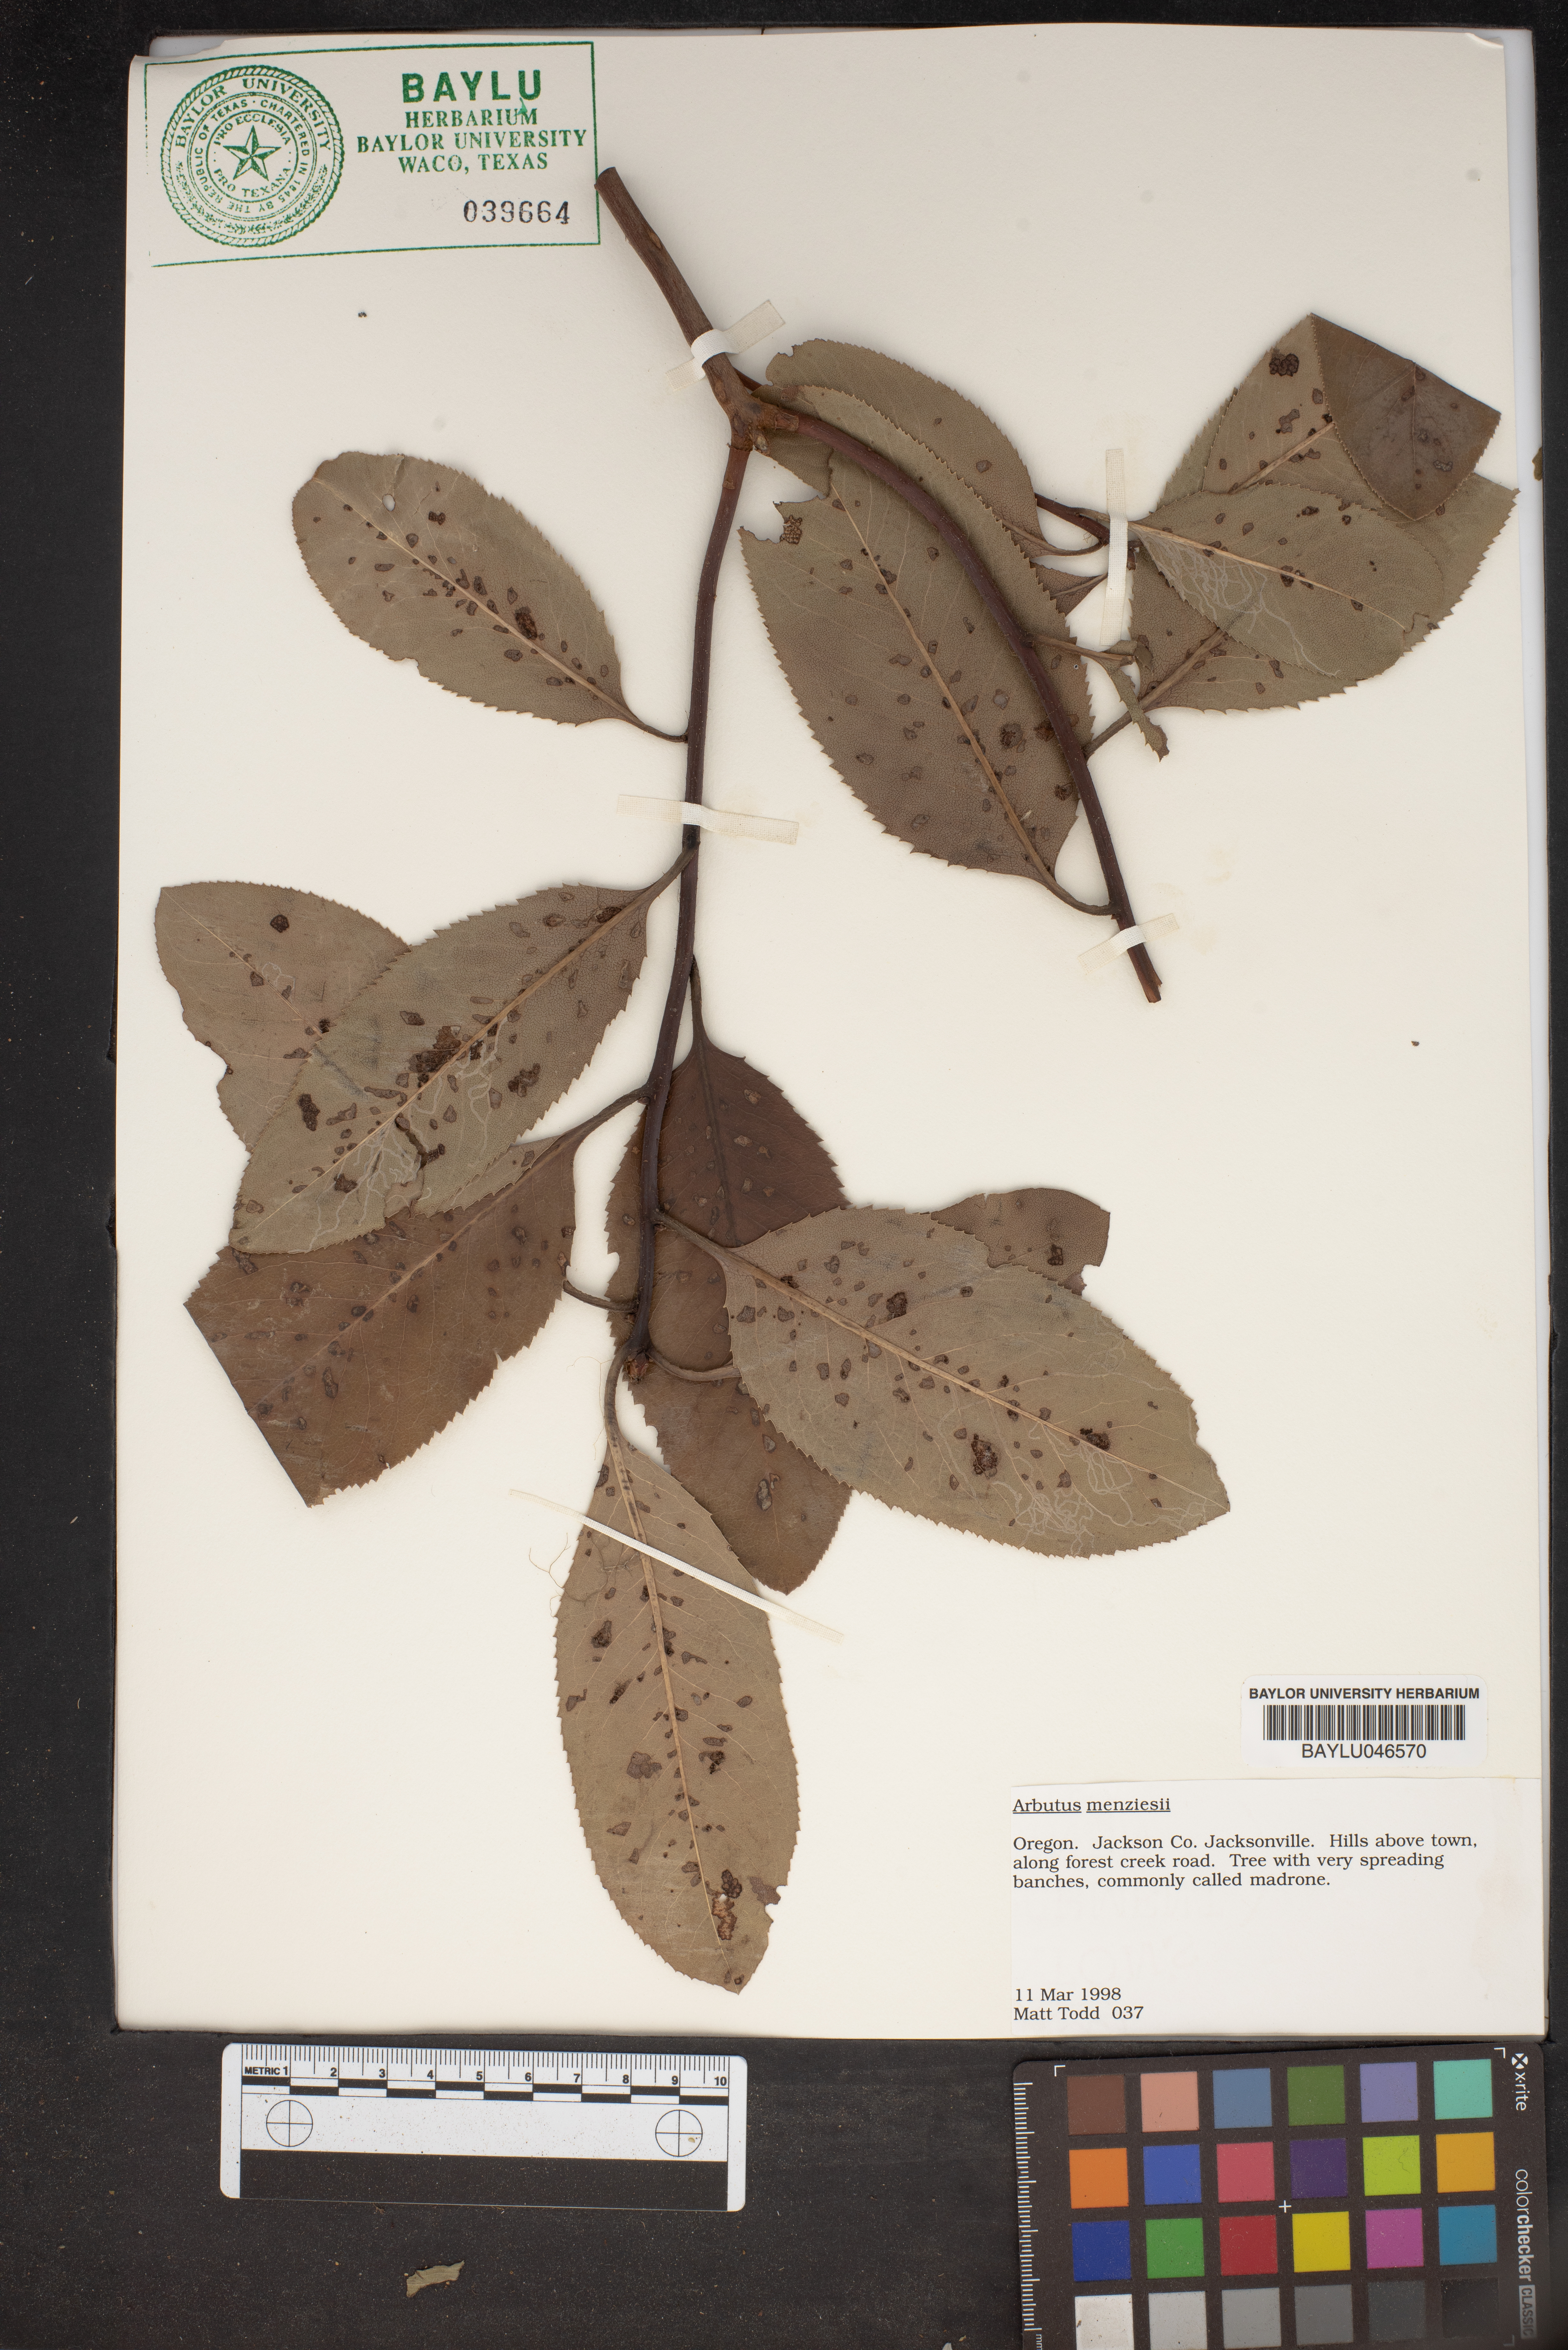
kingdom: Plantae
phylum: Tracheophyta
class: Magnoliopsida
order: Ericales
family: Ericaceae
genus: Arbutus
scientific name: Arbutus menziesii
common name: Pacific madrone
